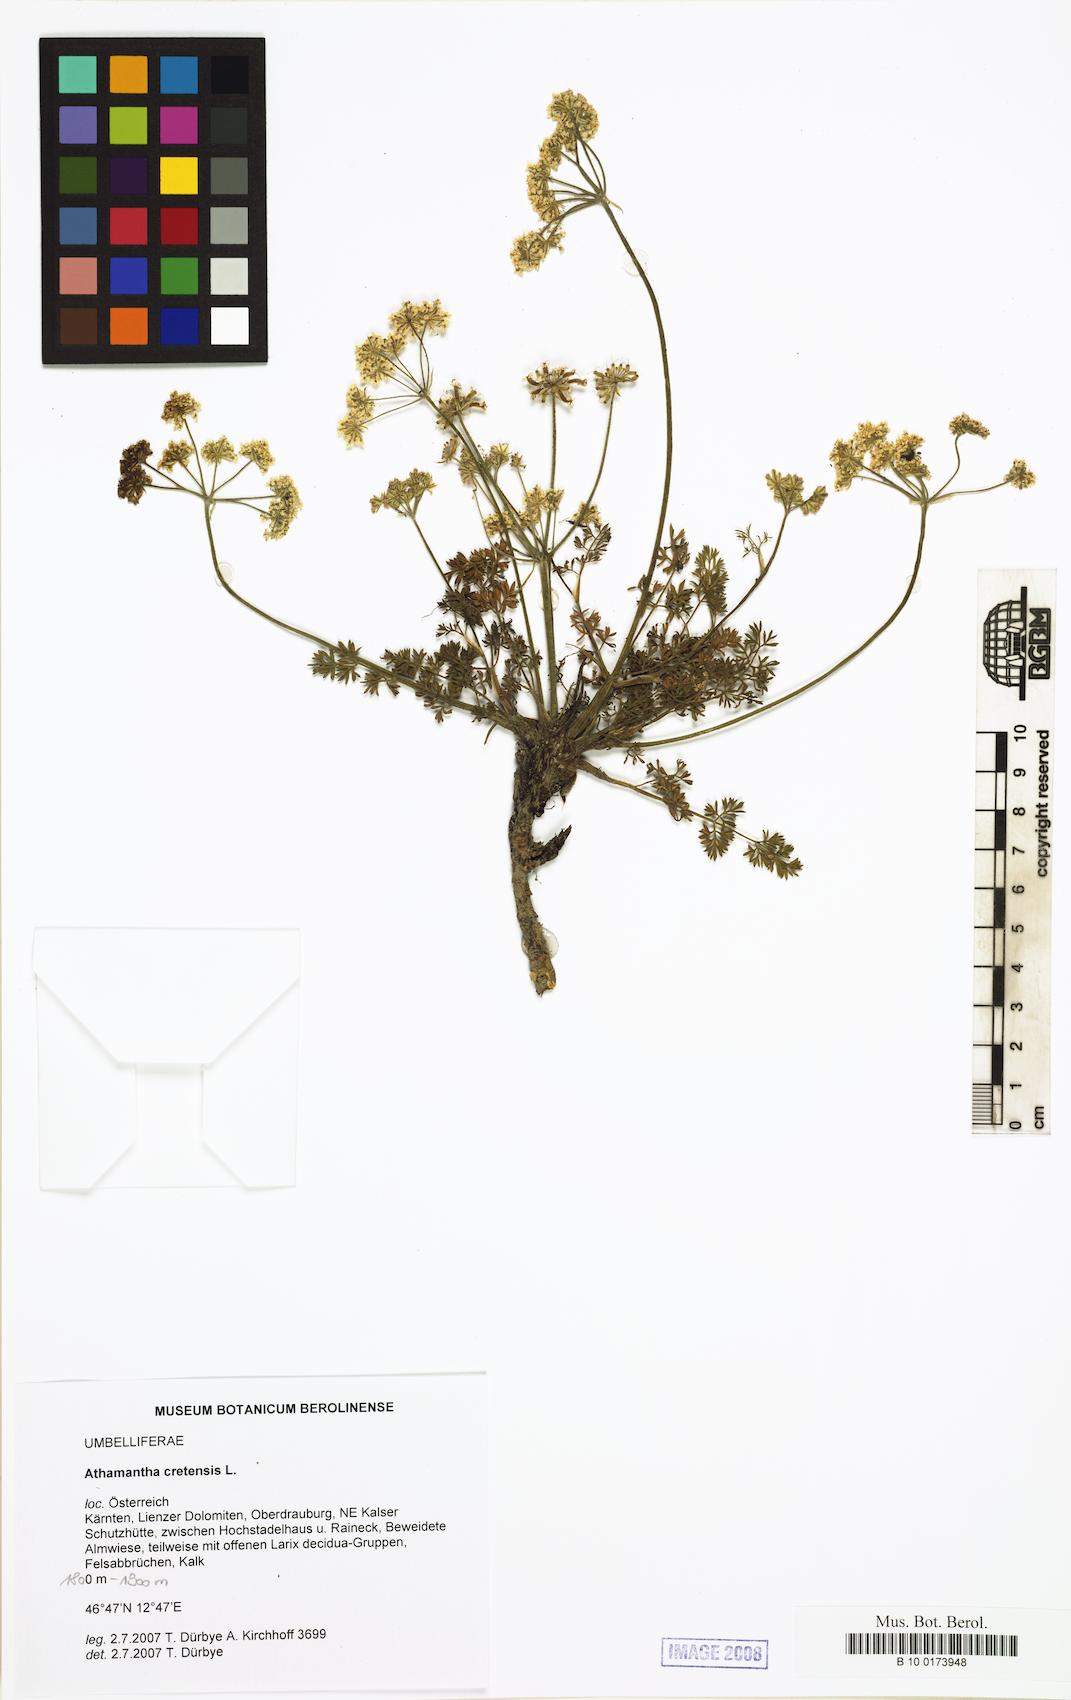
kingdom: Plantae
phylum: Tracheophyta
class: Magnoliopsida
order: Apiales
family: Apiaceae
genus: Athamanta
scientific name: Athamanta cretensis
